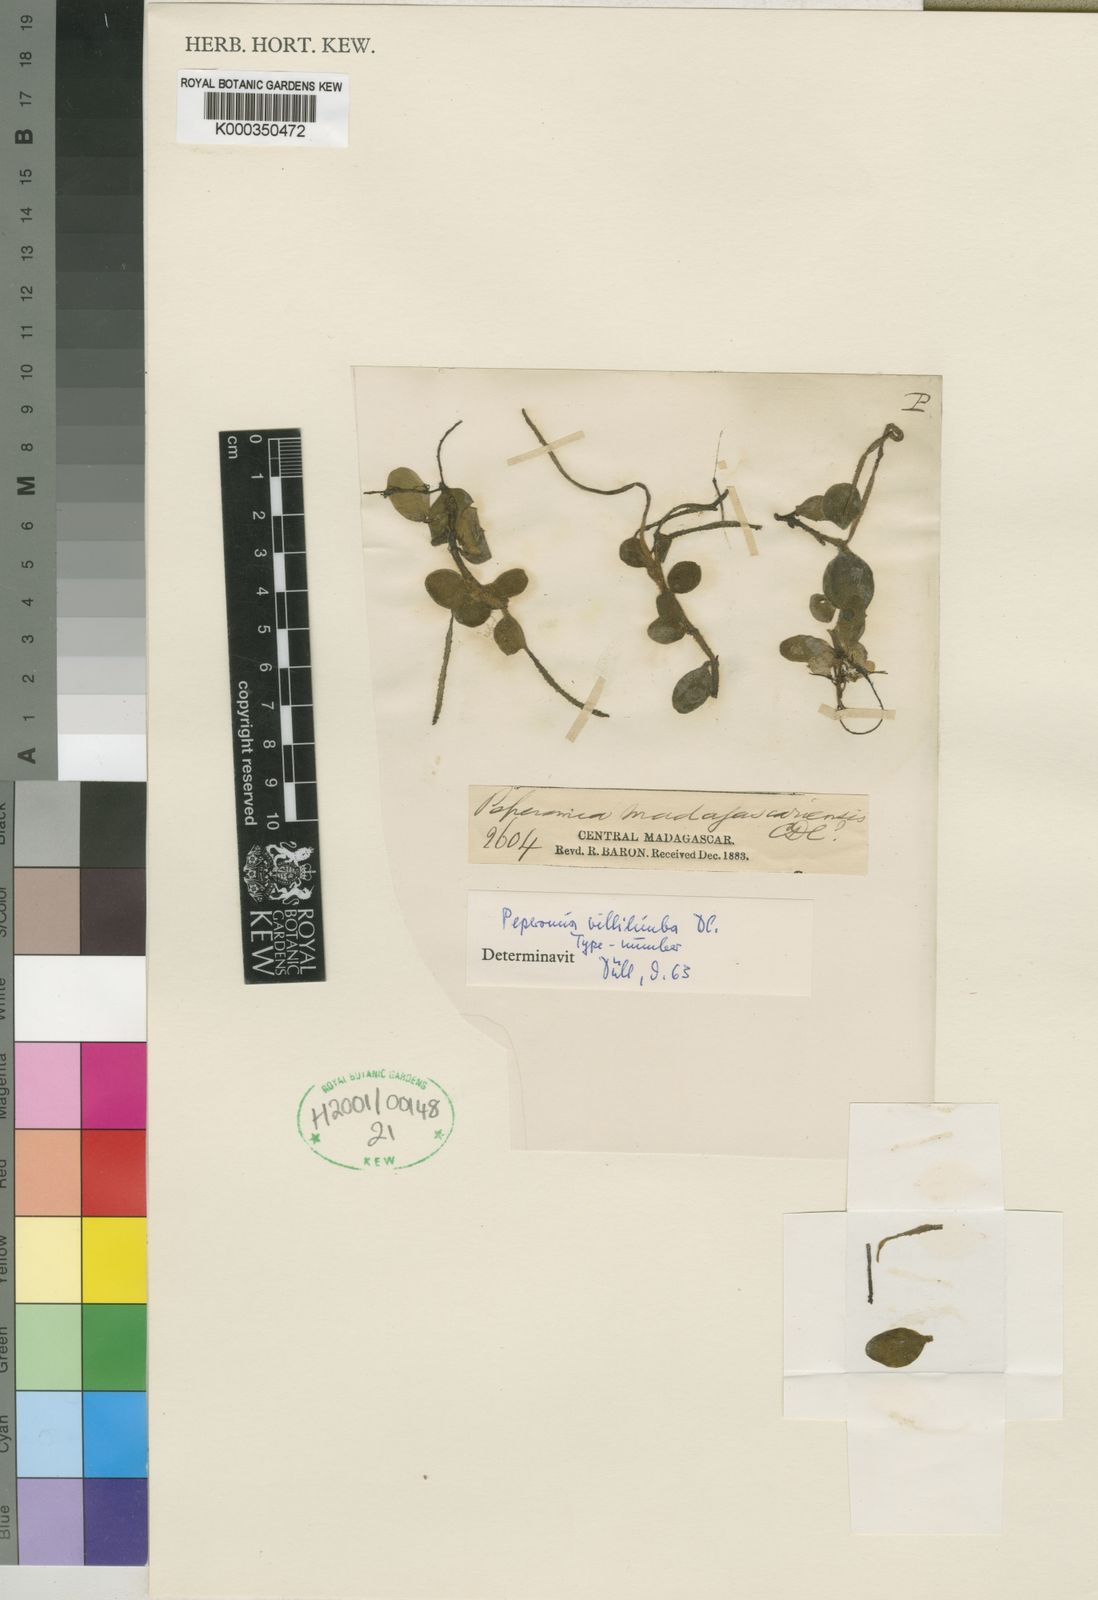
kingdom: Plantae
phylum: Tracheophyta
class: Magnoliopsida
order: Piperales
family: Piperaceae
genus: Peperomia
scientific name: Peperomia madagascariensis
